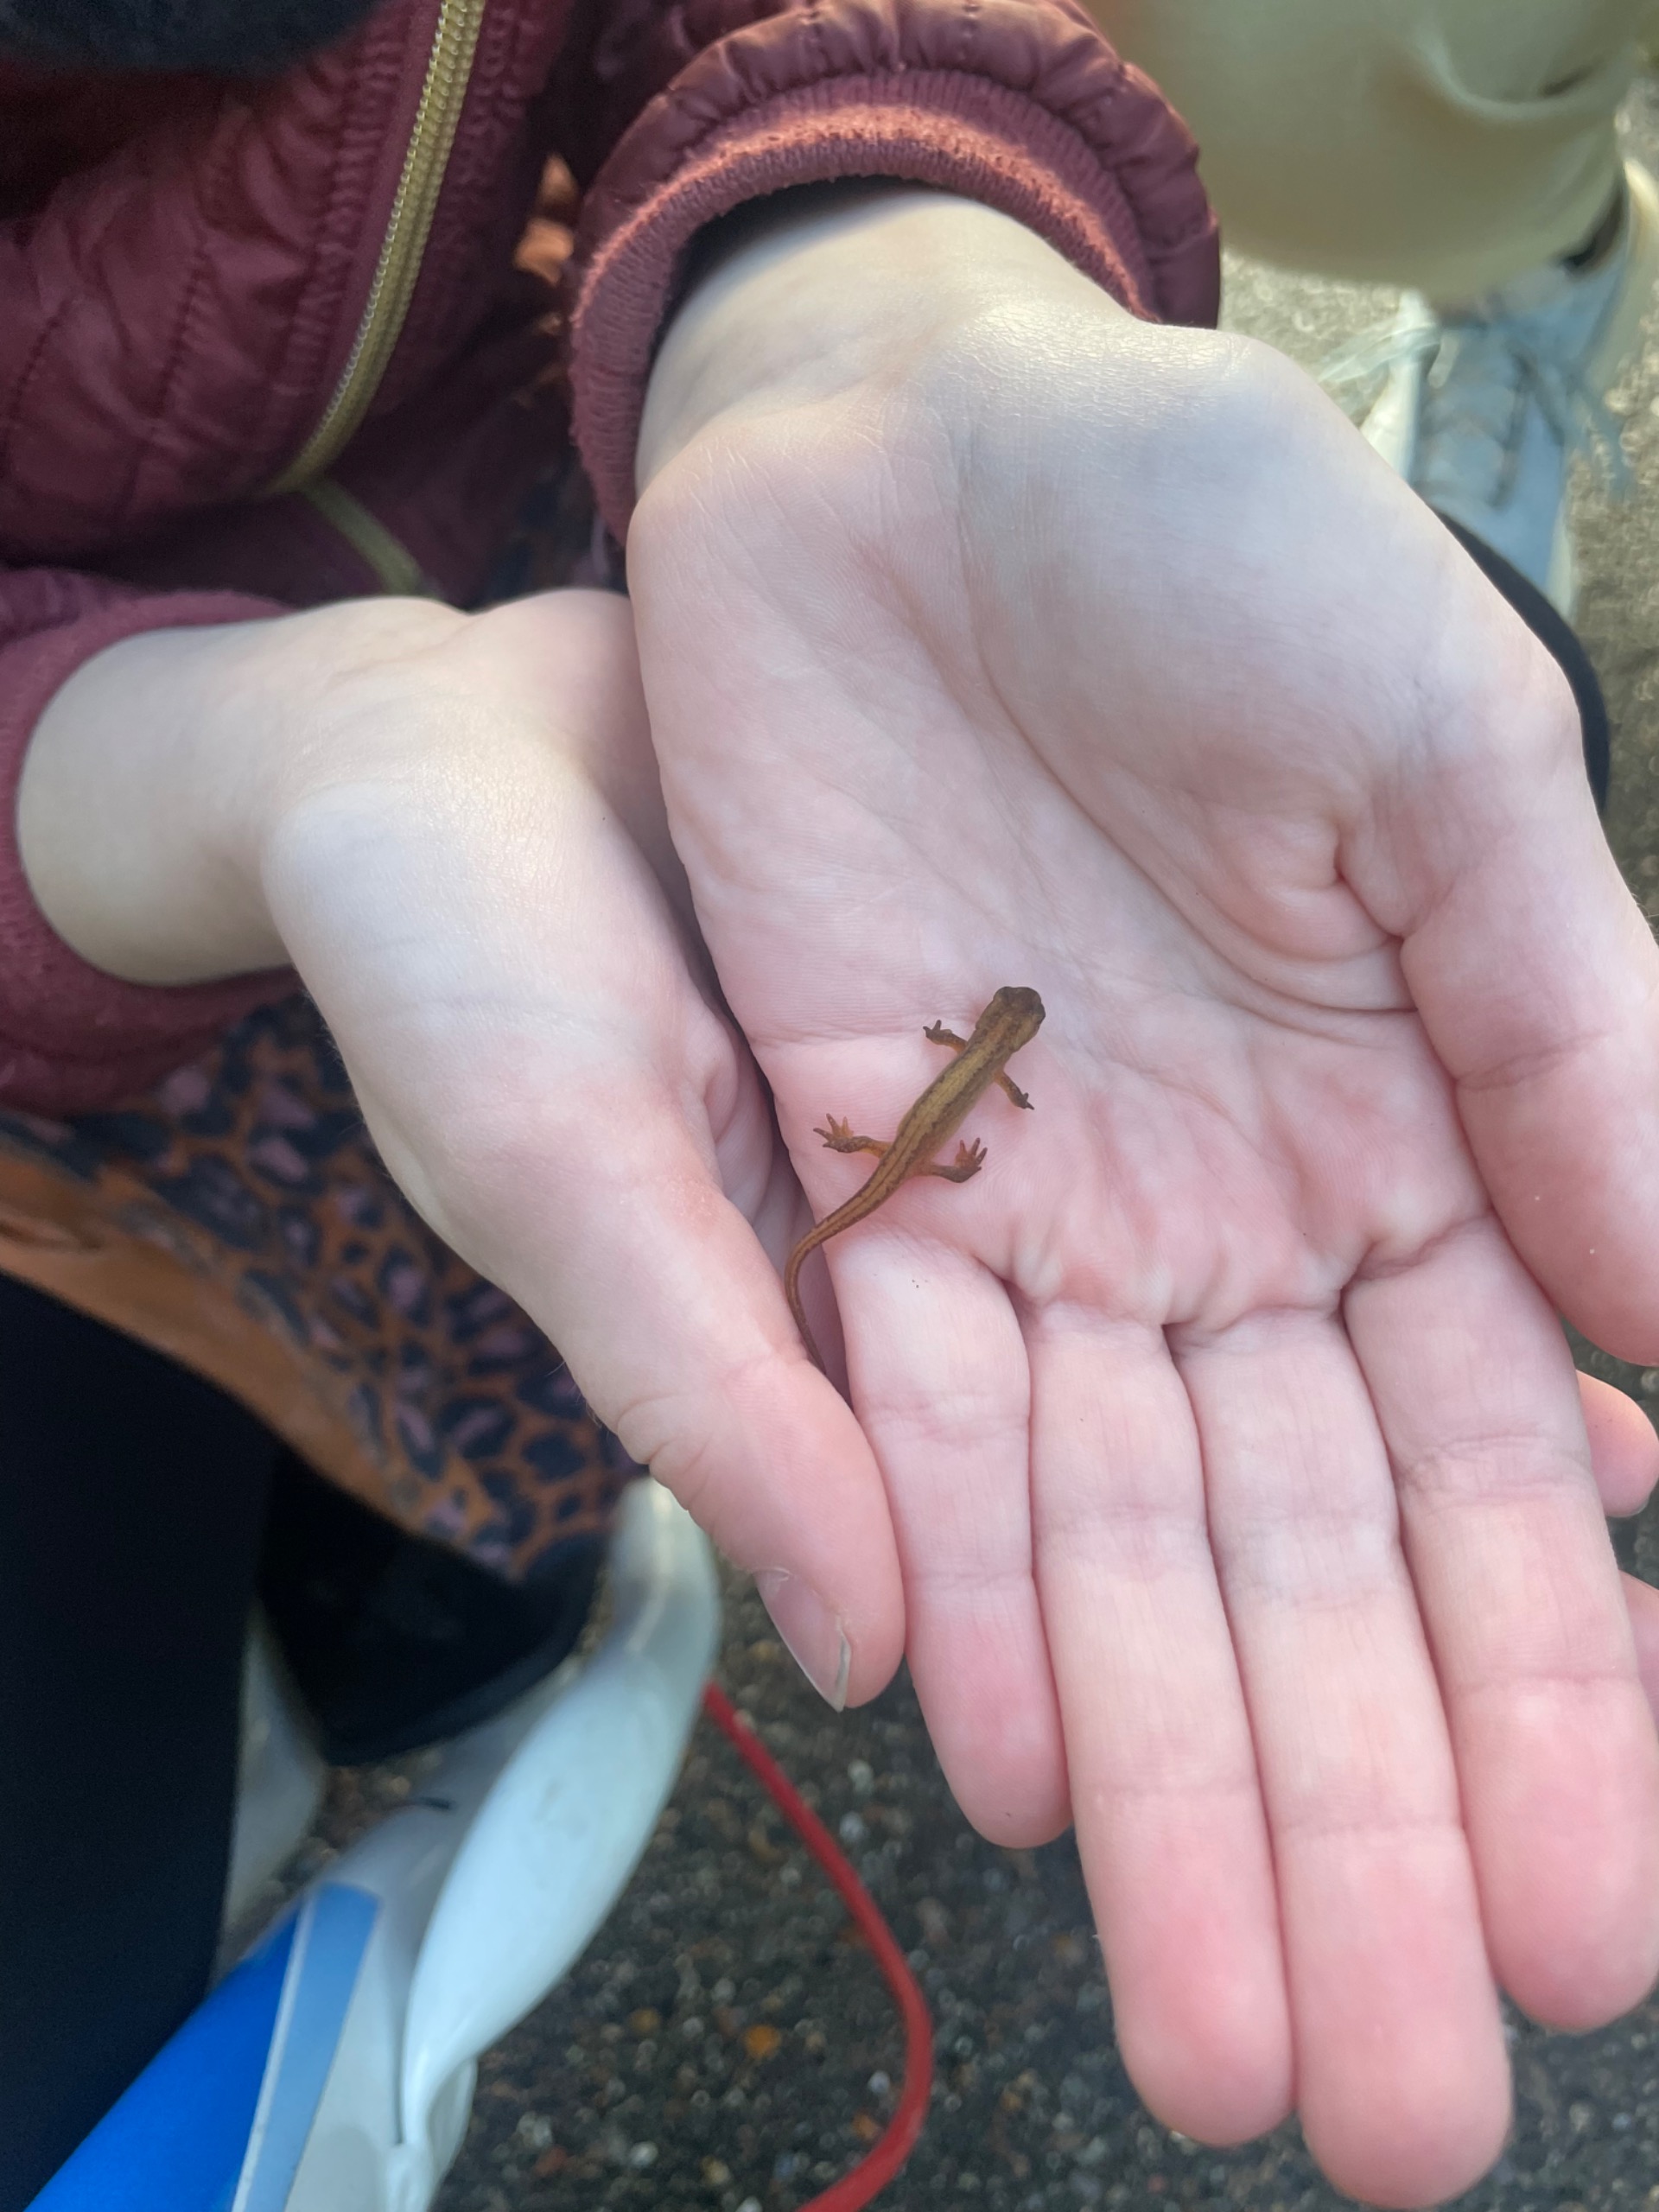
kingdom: Animalia
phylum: Chordata
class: Amphibia
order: Caudata
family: Salamandridae
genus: Lissotriton
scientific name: Lissotriton vulgaris
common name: Lille vandsalamander
